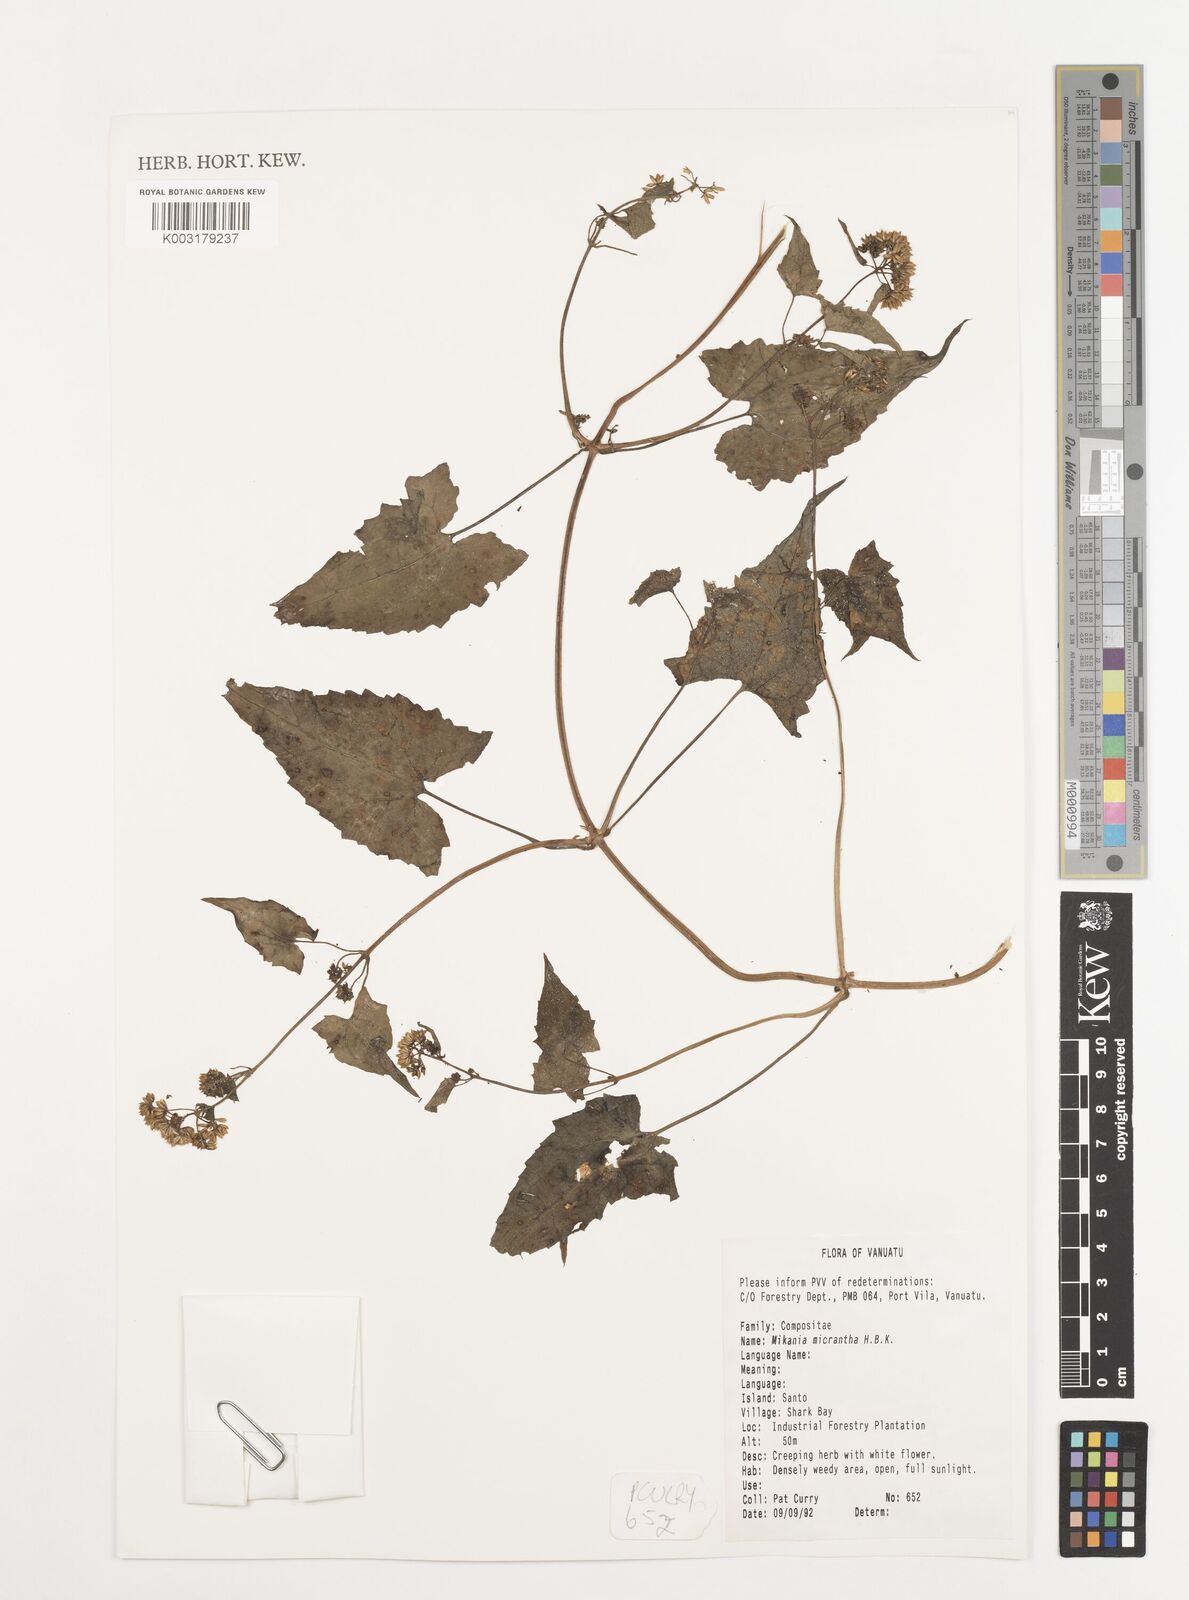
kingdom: Plantae
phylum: Tracheophyta
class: Magnoliopsida
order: Asterales
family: Asteraceae
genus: Mikania
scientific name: Mikania micrantha
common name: Mile-a-minute
